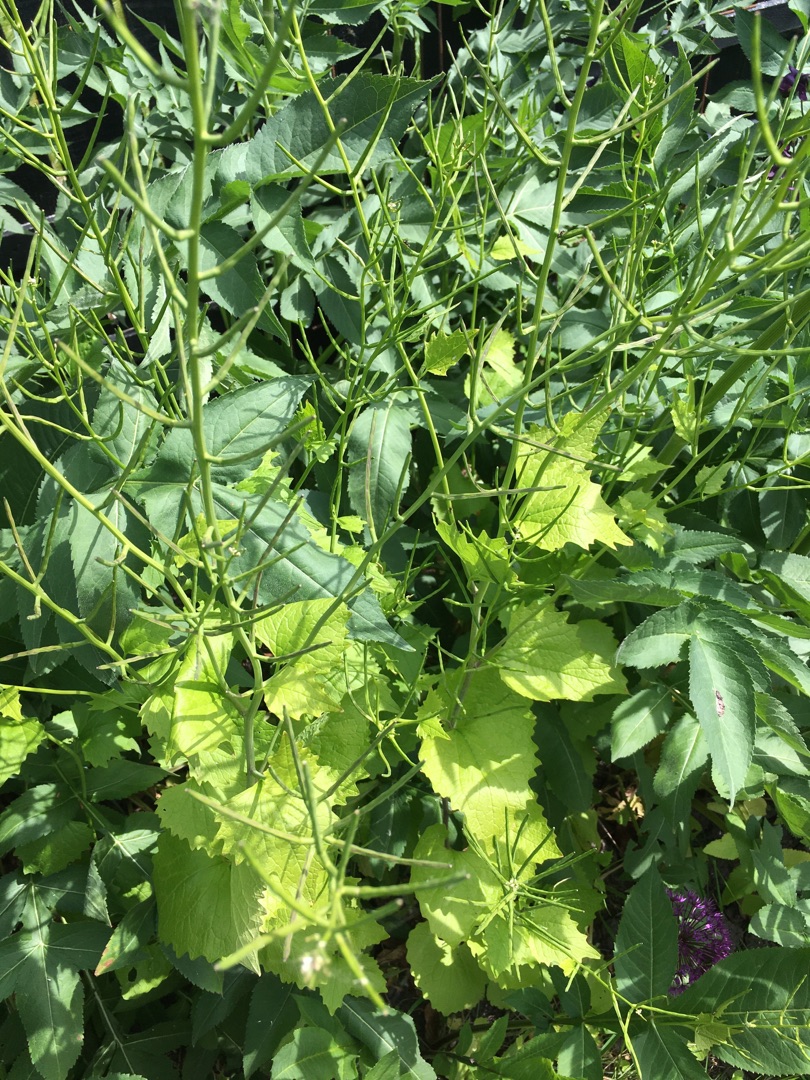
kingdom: Plantae
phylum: Tracheophyta
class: Magnoliopsida
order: Brassicales
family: Brassicaceae
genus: Alliaria
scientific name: Alliaria petiolata
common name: Løgkarse
